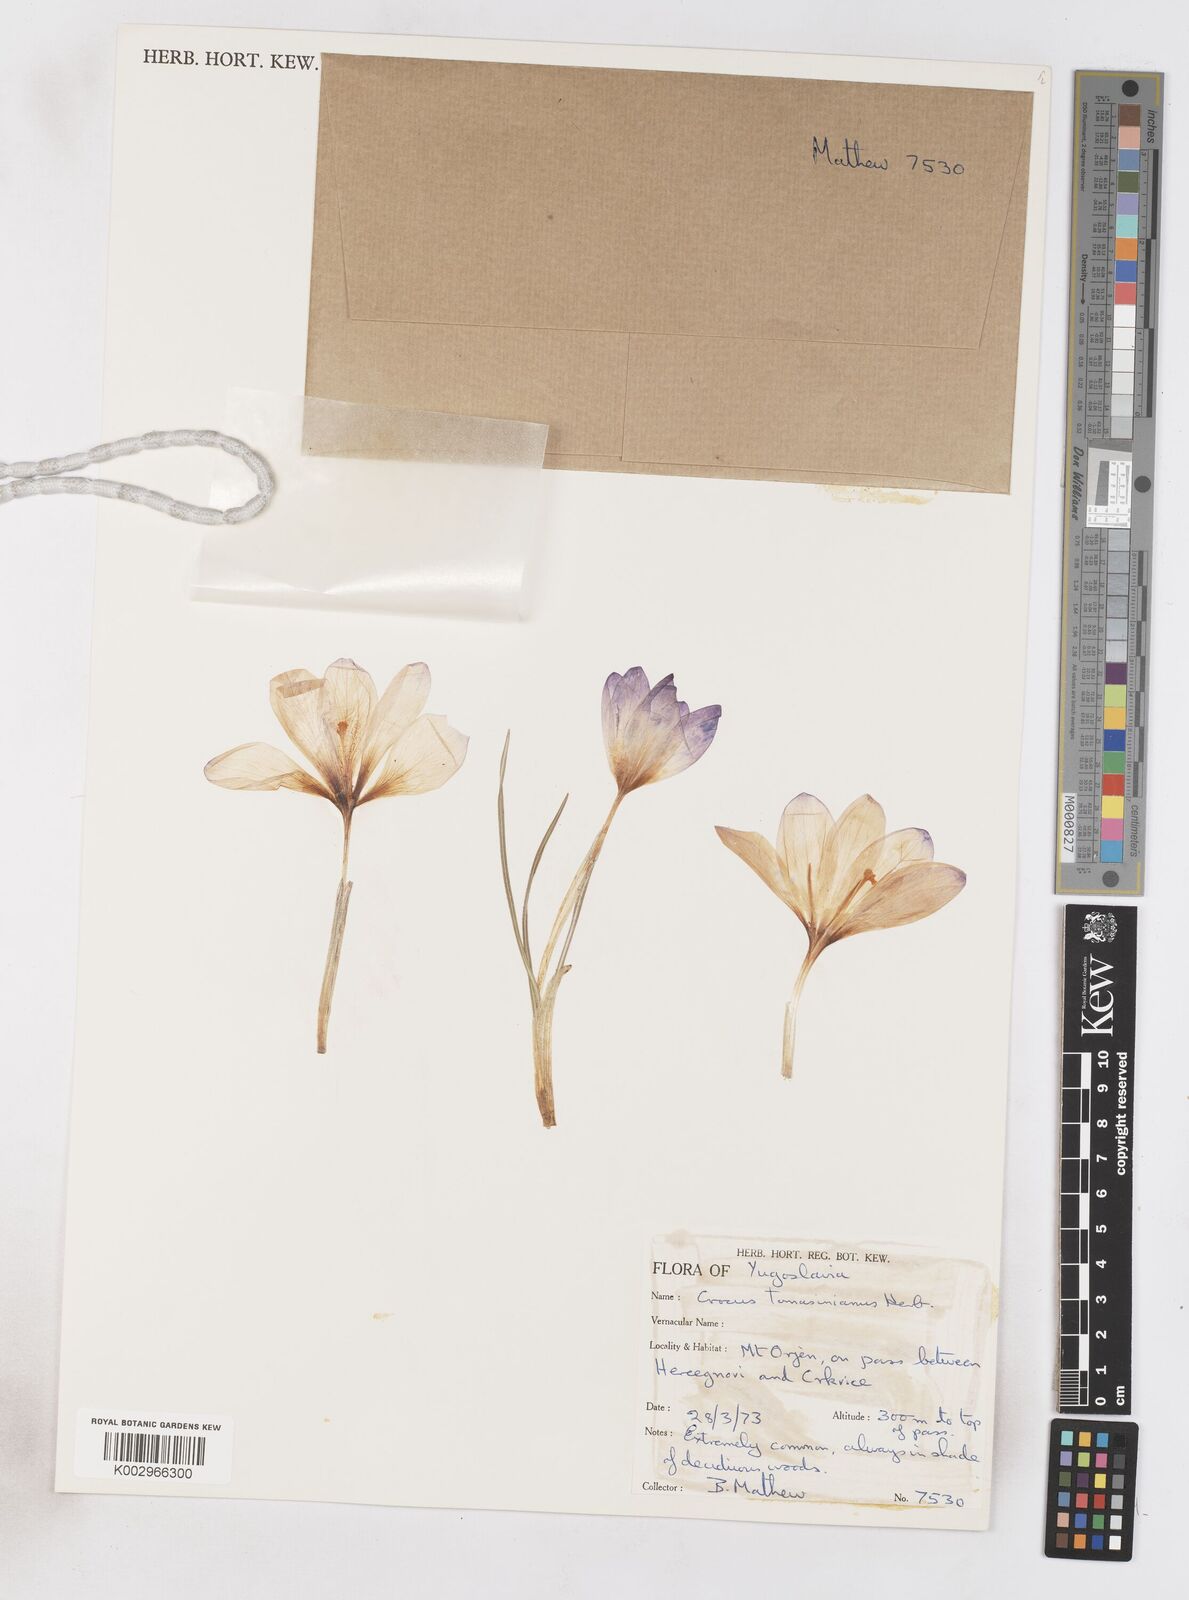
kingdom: Plantae
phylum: Tracheophyta
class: Liliopsida
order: Asparagales
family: Iridaceae
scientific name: Iridaceae
